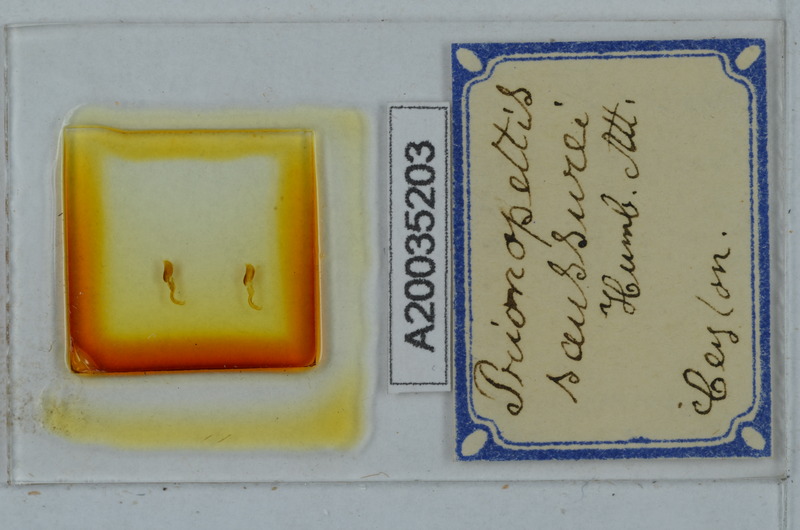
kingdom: Animalia
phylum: Arthropoda
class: Diplopoda
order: Polydesmida
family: Paradoxosomatidae
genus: Anoplodesmus
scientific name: Anoplodesmus saussurii
